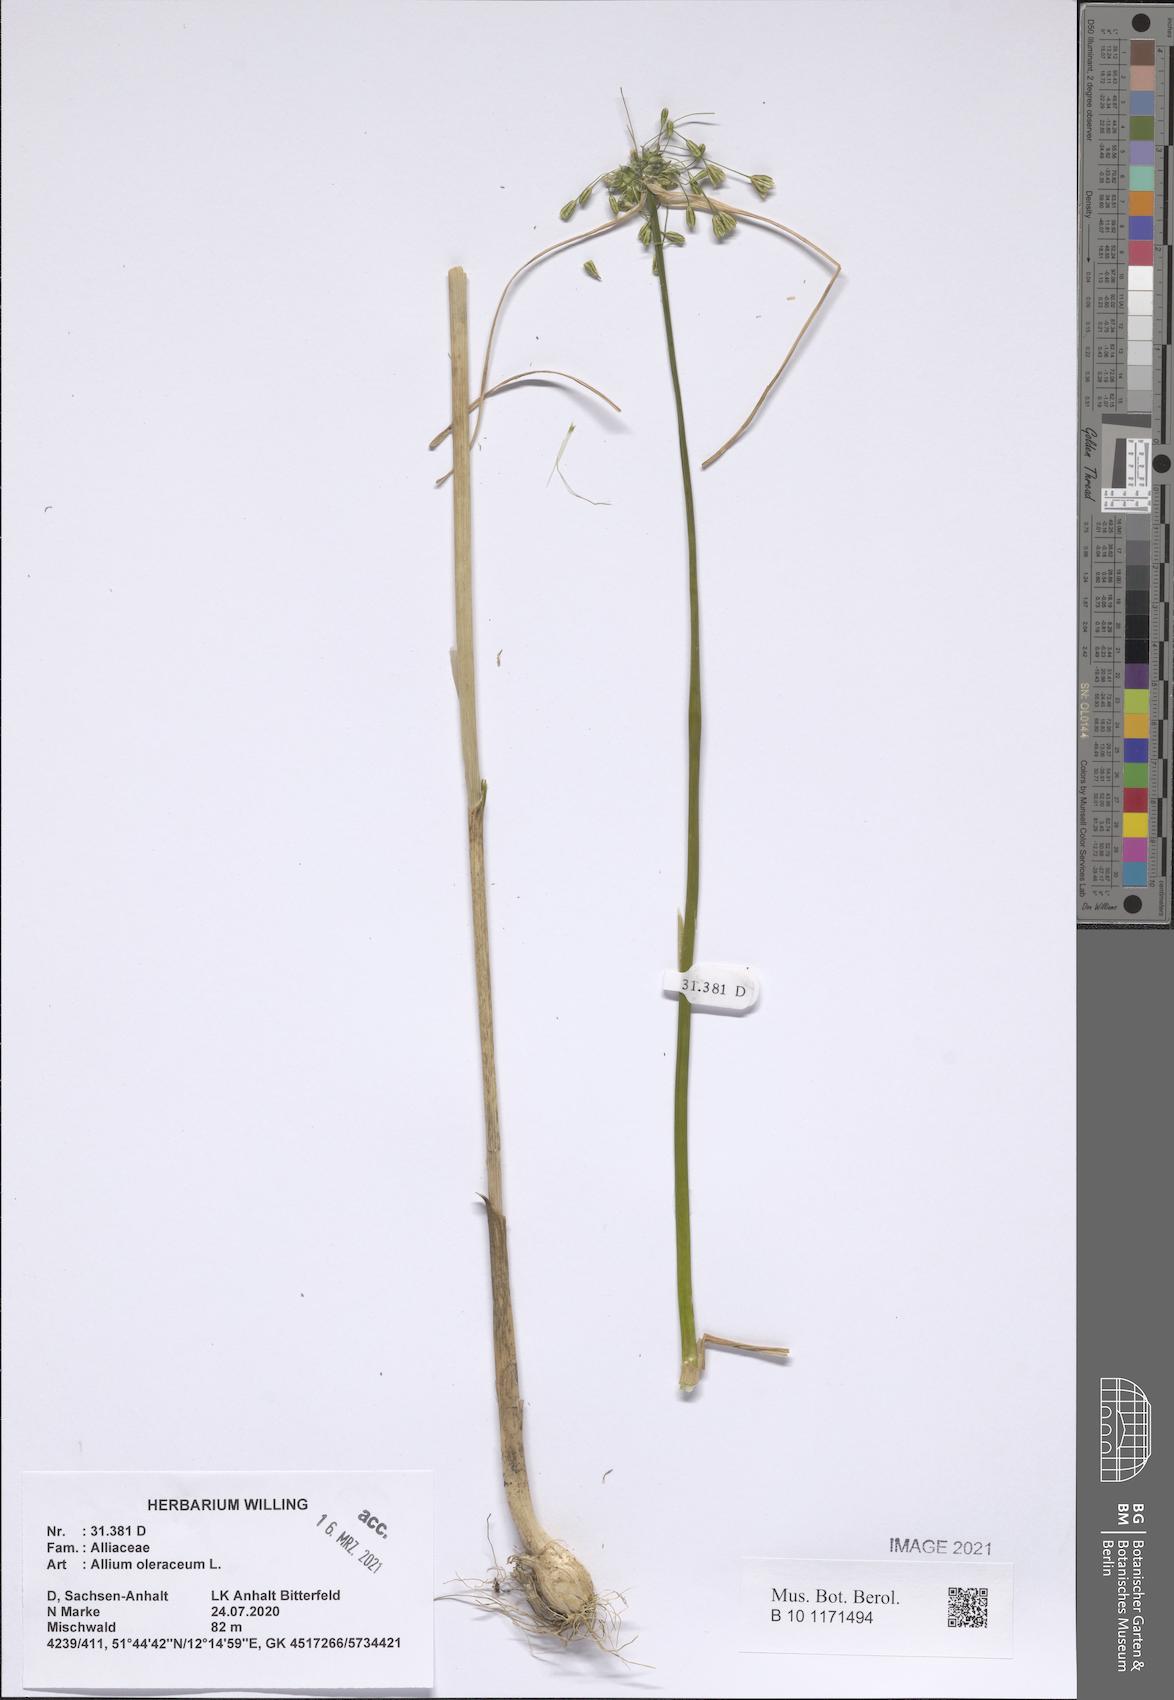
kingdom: Plantae
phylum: Tracheophyta
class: Liliopsida
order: Asparagales
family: Amaryllidaceae
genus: Allium
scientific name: Allium oleraceum
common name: Field garlic
